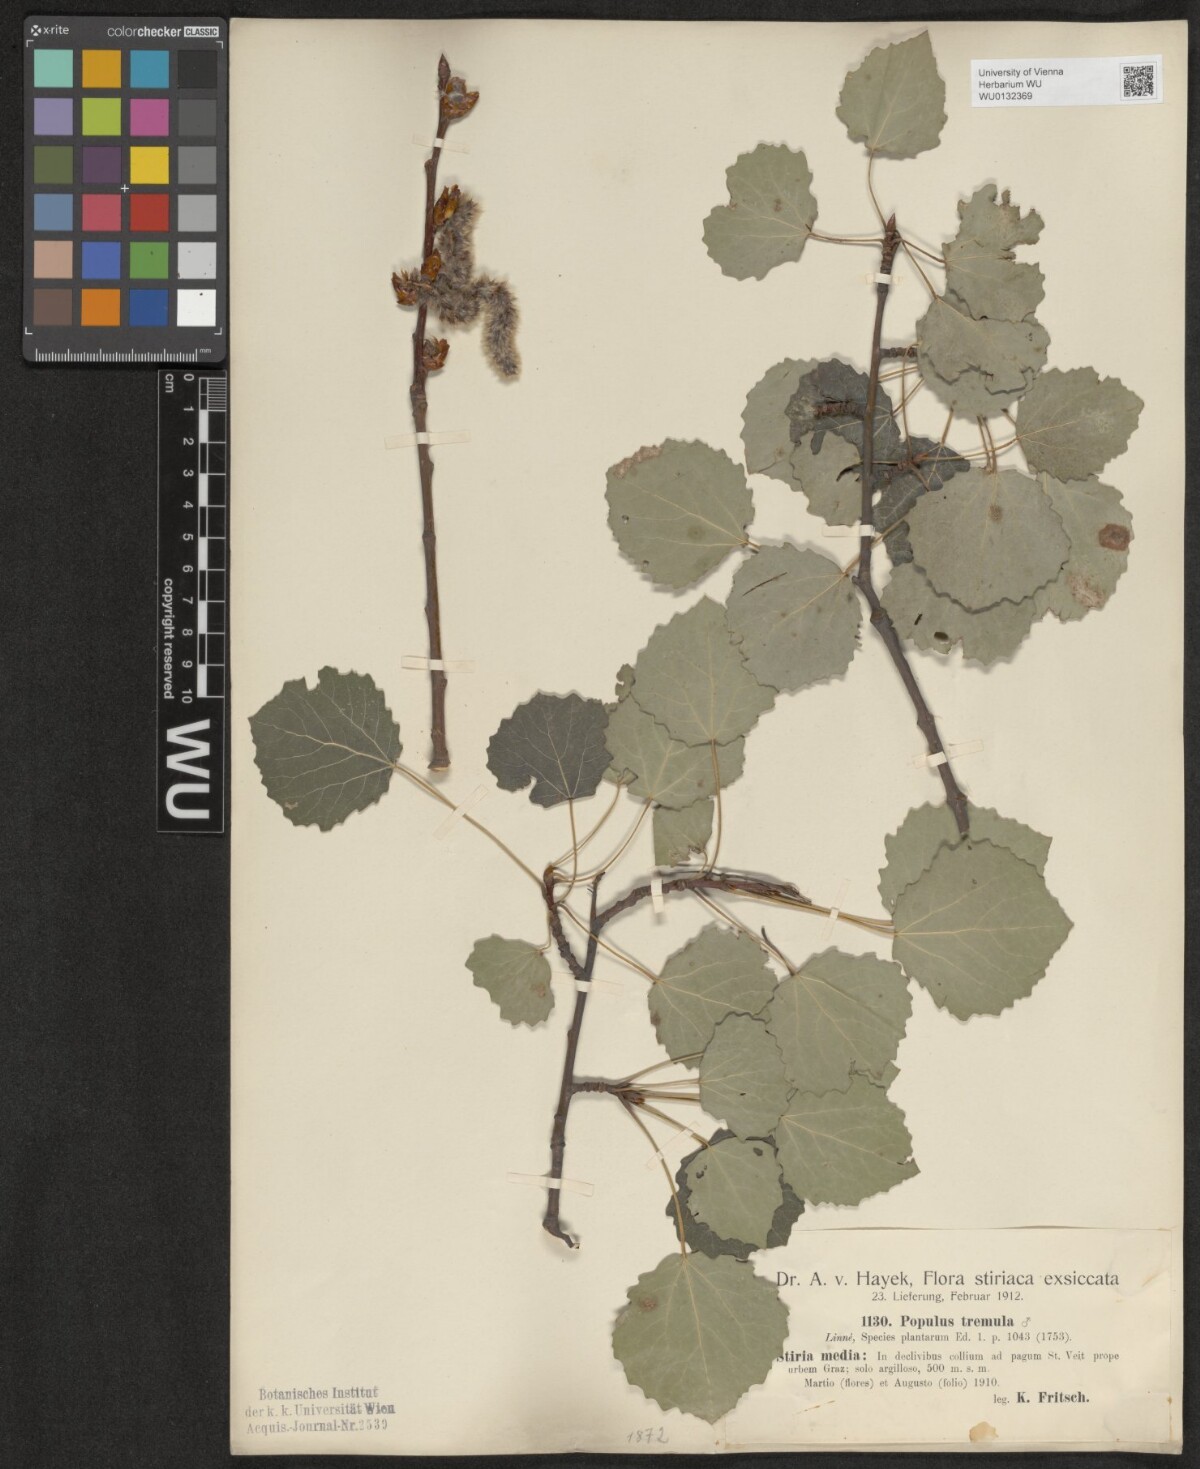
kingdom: Plantae
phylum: Tracheophyta
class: Magnoliopsida
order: Malpighiales
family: Salicaceae
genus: Populus
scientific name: Populus tremula
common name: European aspen
